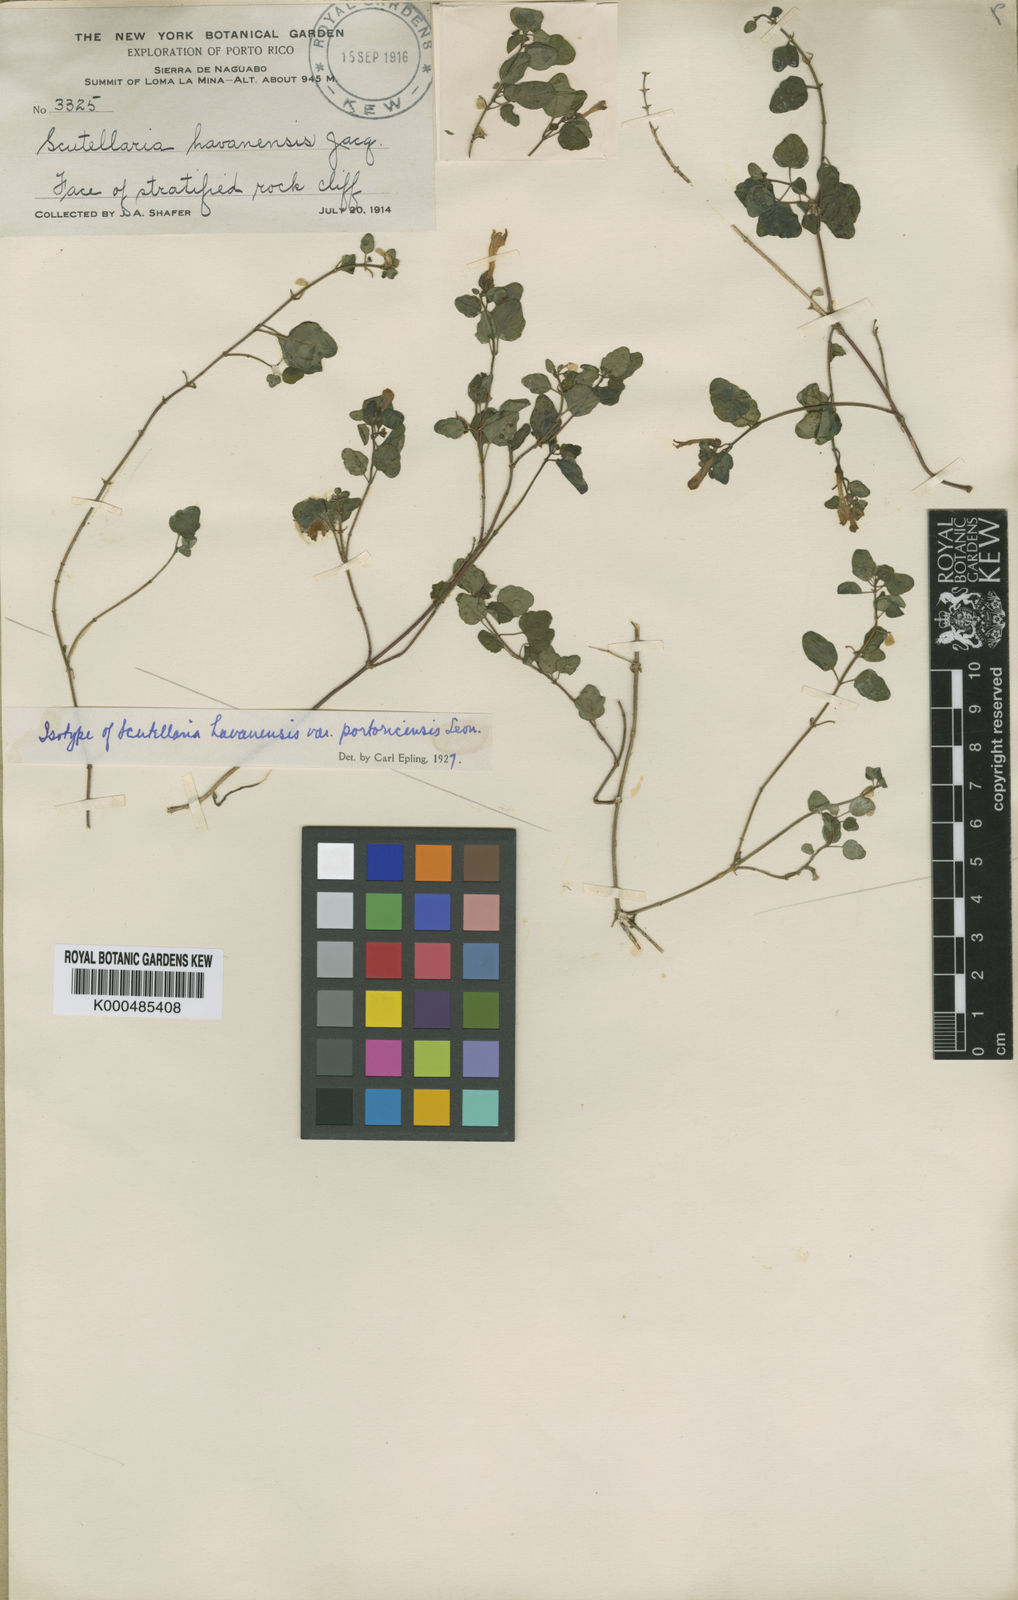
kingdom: Plantae
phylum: Tracheophyta
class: Magnoliopsida
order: Lamiales
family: Lamiaceae
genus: Scutellaria
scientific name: Scutellaria havanensis
